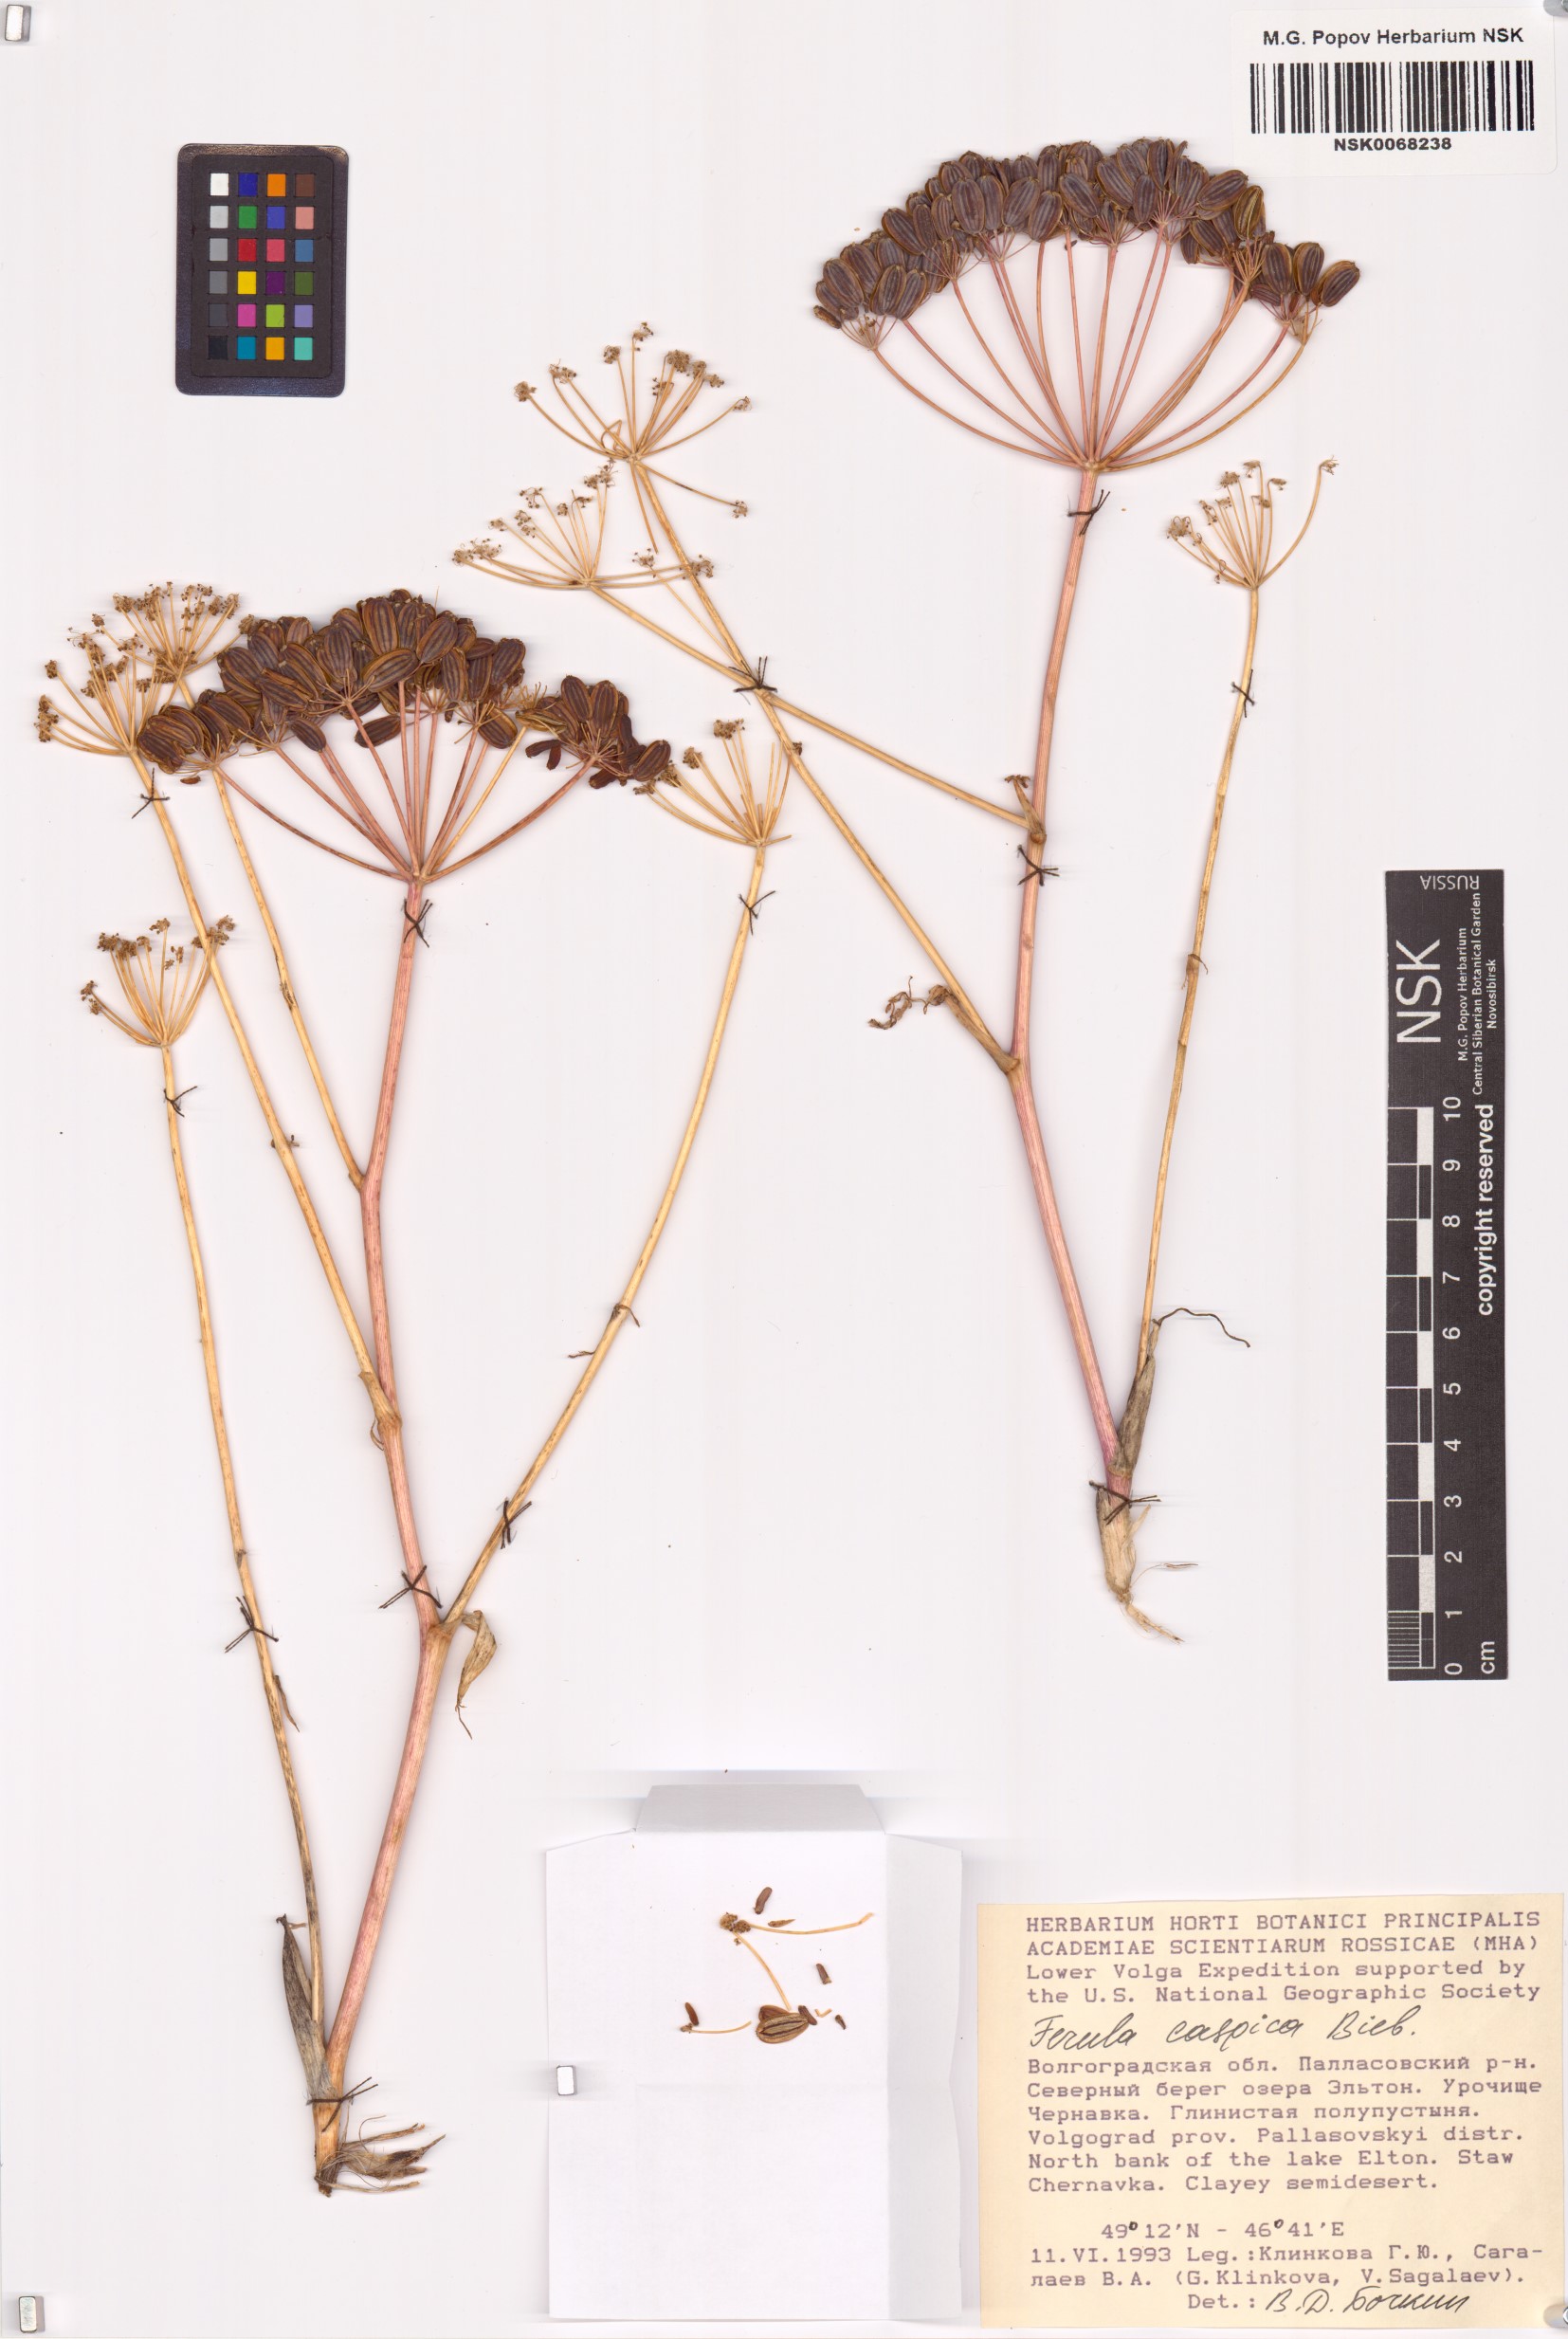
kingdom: Plantae
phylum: Tracheophyta
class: Magnoliopsida
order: Apiales
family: Apiaceae
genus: Ferula
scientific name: Ferula caspica
